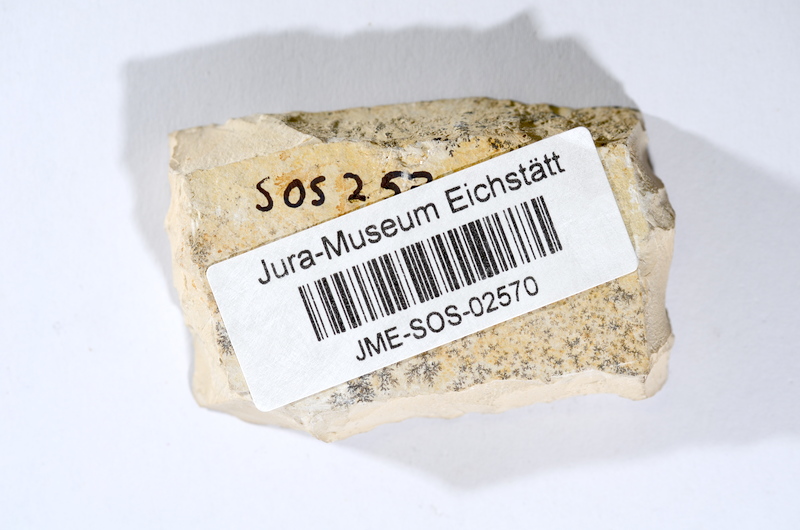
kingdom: Animalia
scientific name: Animalia
